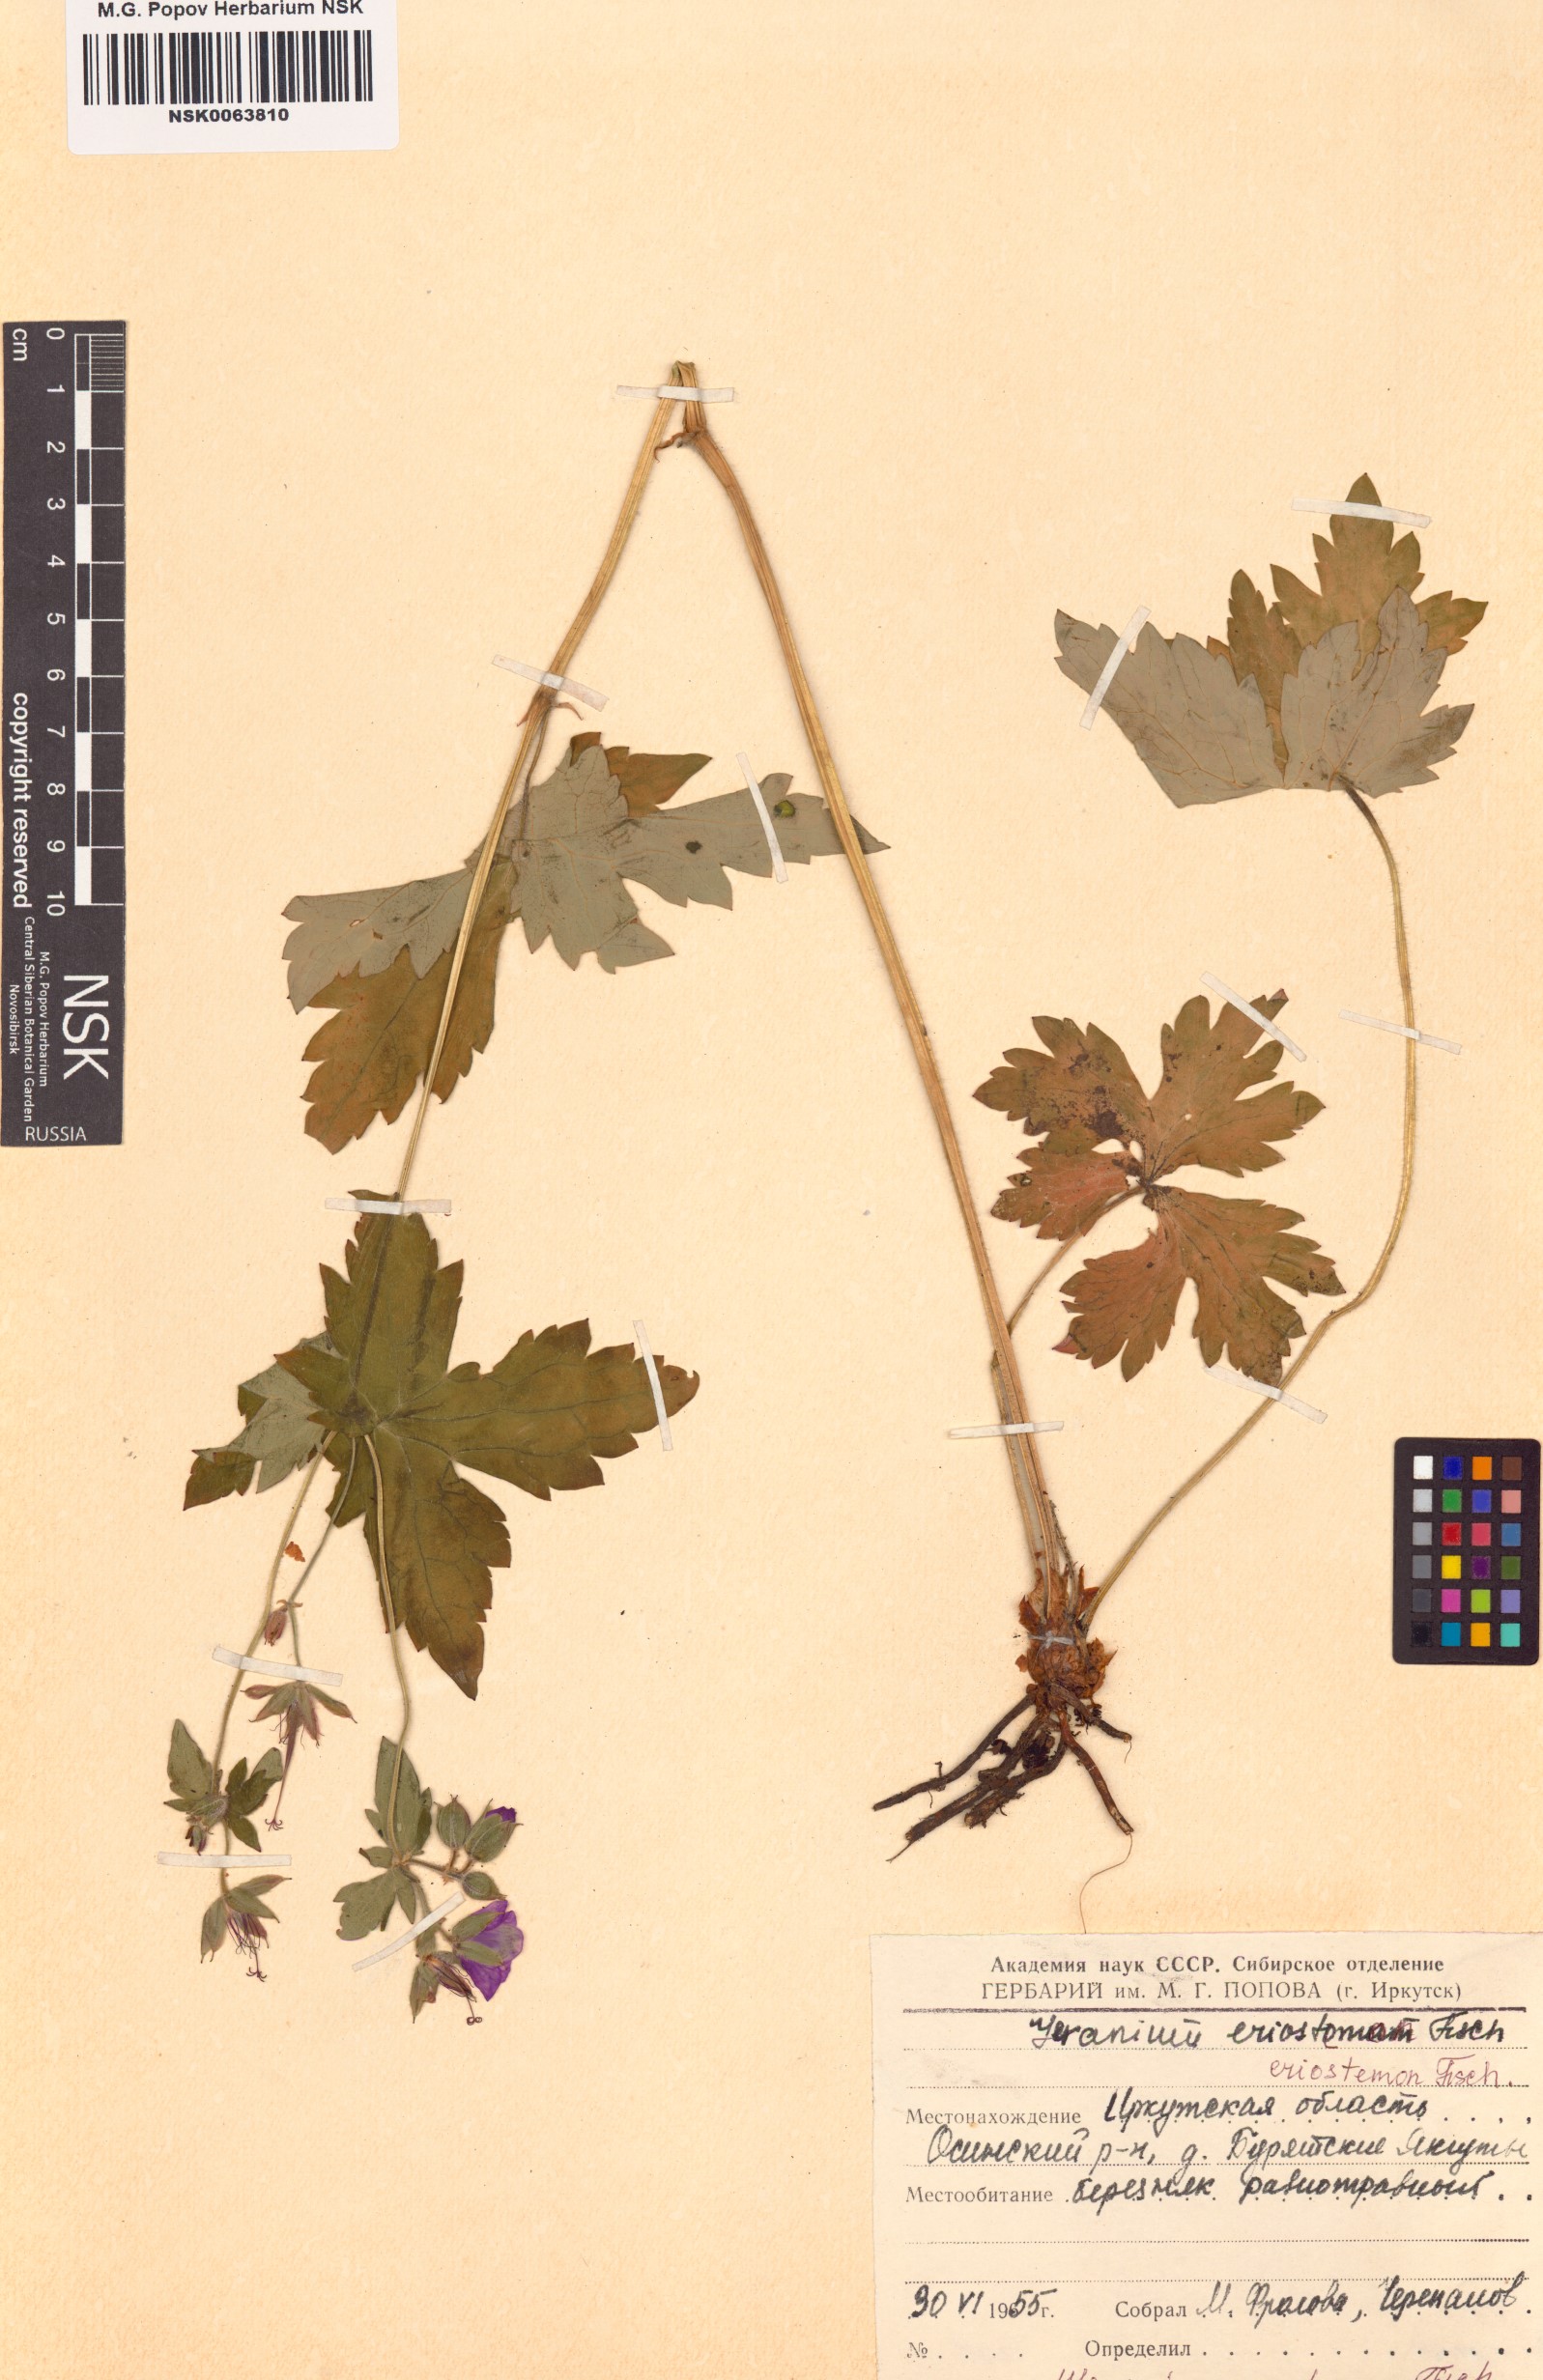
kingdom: Plantae
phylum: Tracheophyta
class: Magnoliopsida
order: Geraniales
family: Geraniaceae
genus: Geranium
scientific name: Geranium platyanthum
